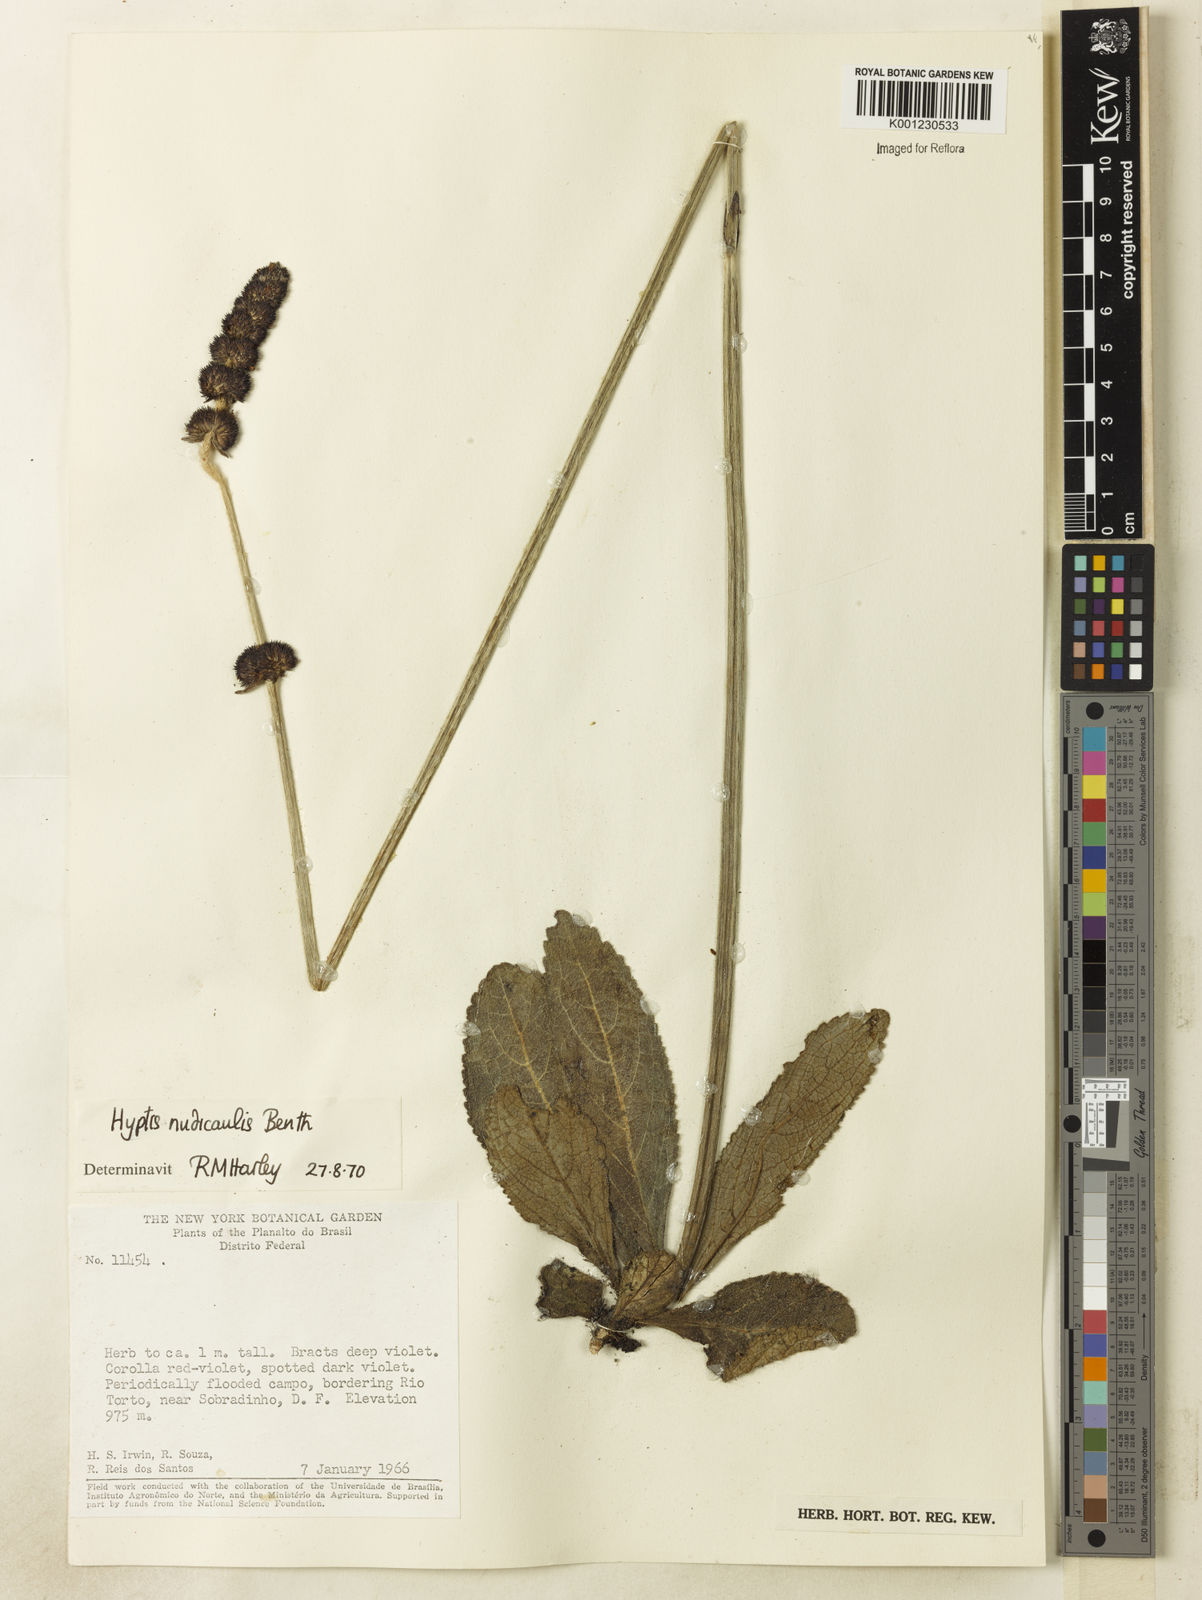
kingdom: Plantae
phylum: Tracheophyta
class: Magnoliopsida
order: Lamiales
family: Lamiaceae
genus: Hyptis
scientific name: Hyptis nudicaulis
